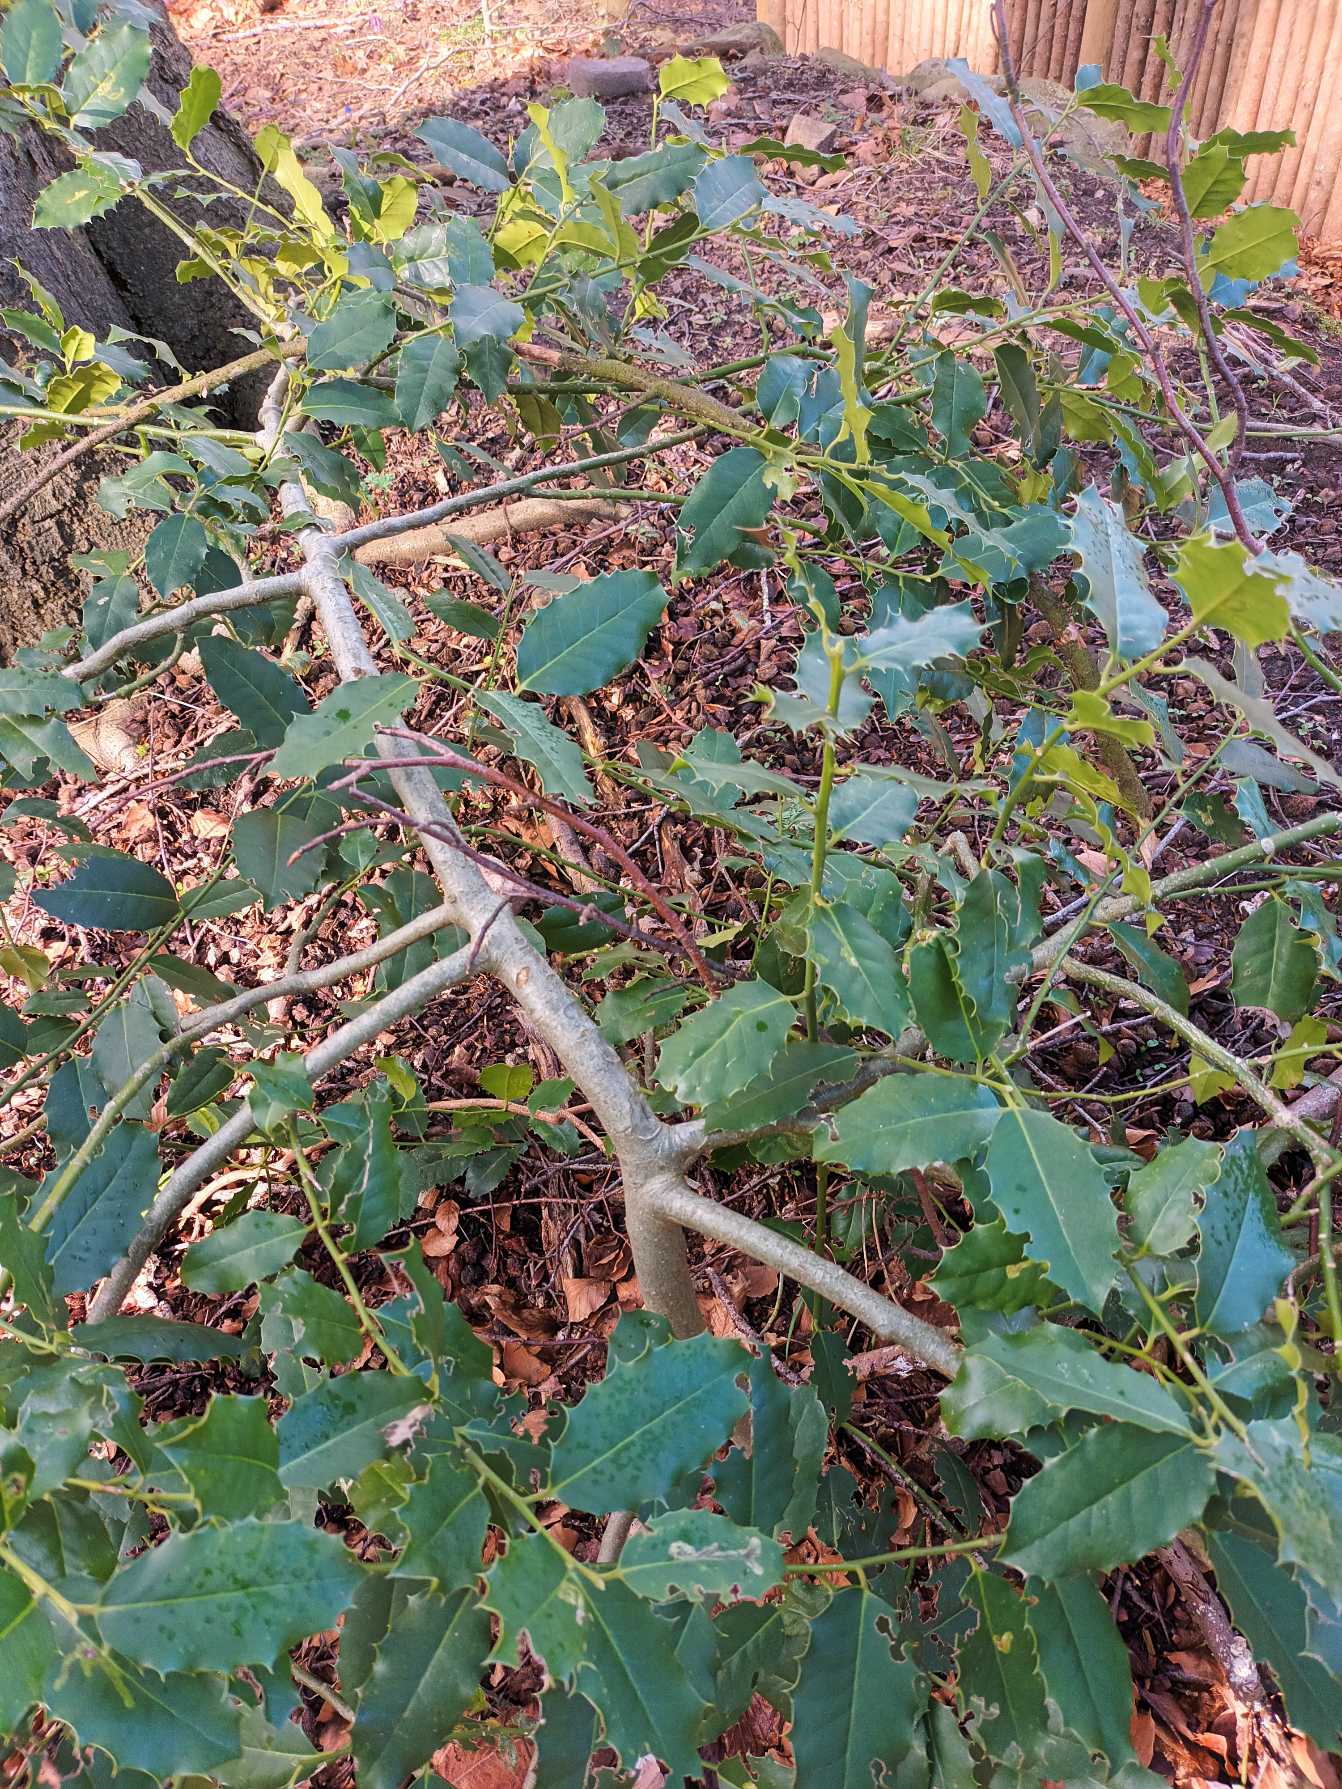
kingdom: Plantae
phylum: Tracheophyta
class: Magnoliopsida
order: Aquifoliales
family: Aquifoliaceae
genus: Ilex
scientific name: Ilex aquifolium
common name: Kristtorn
